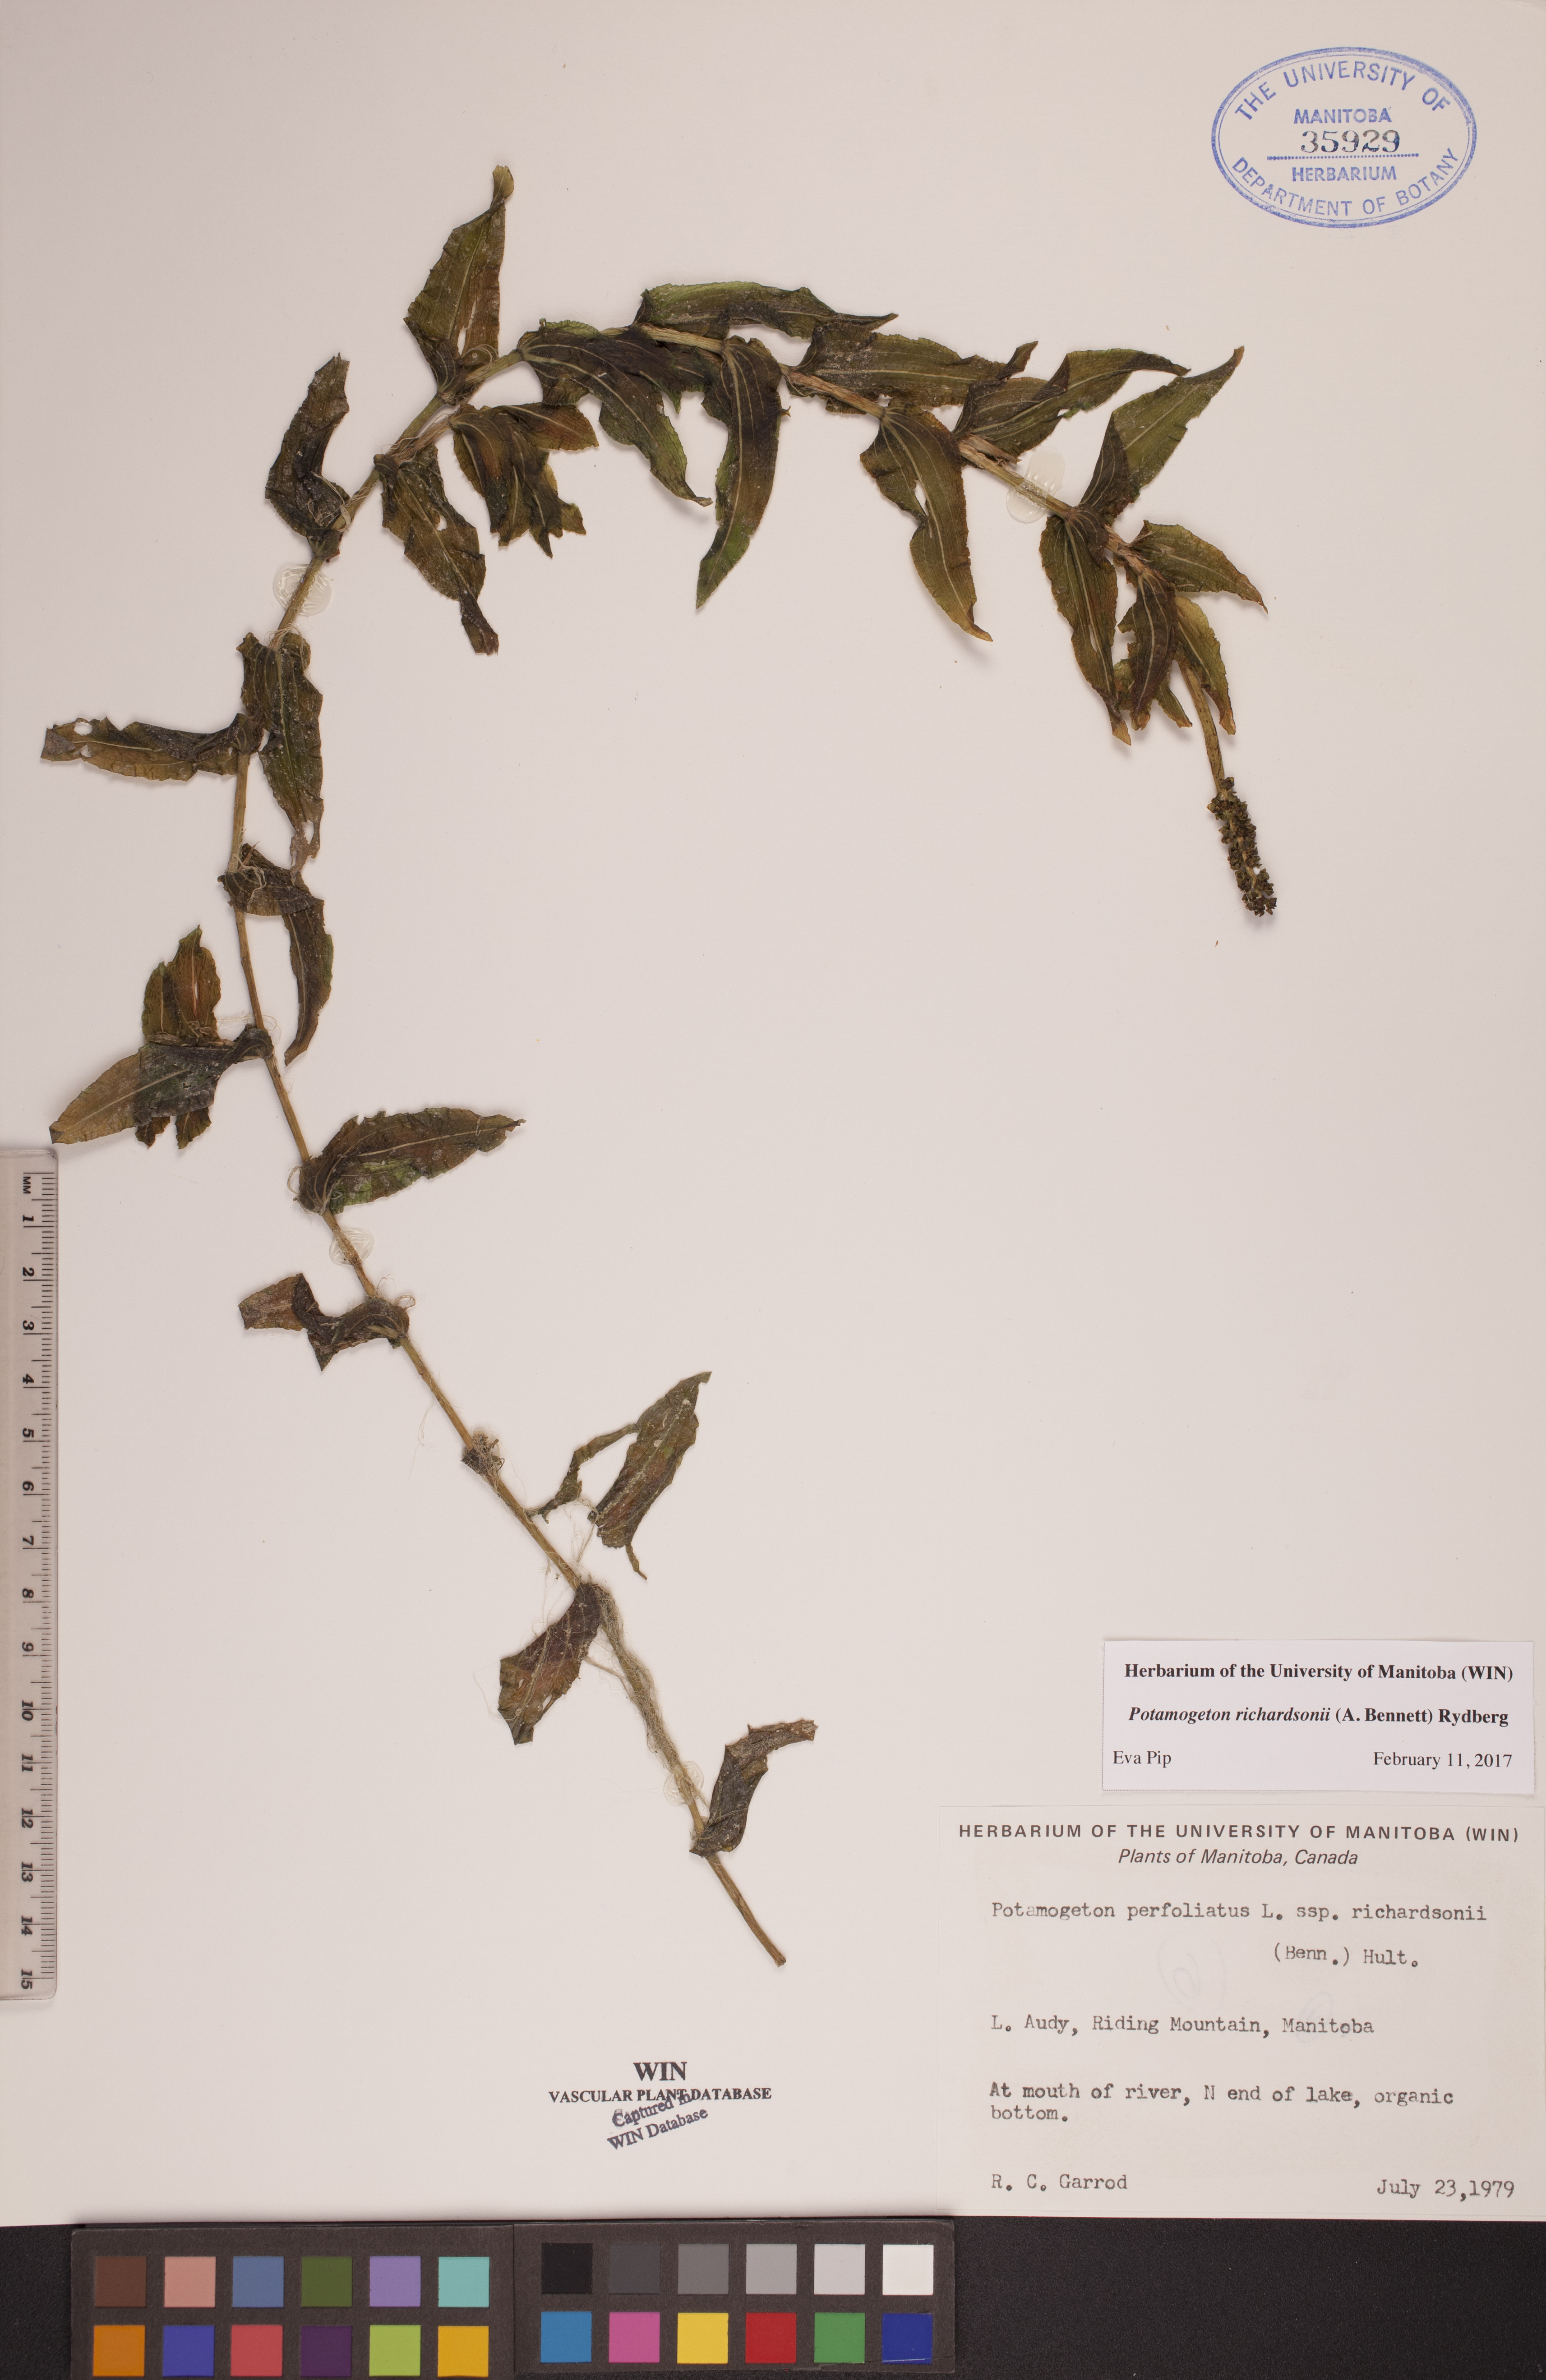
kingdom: Plantae
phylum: Tracheophyta
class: Liliopsida
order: Alismatales
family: Potamogetonaceae
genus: Potamogeton
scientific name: Potamogeton richardsonii
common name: Richardson's pondweed
